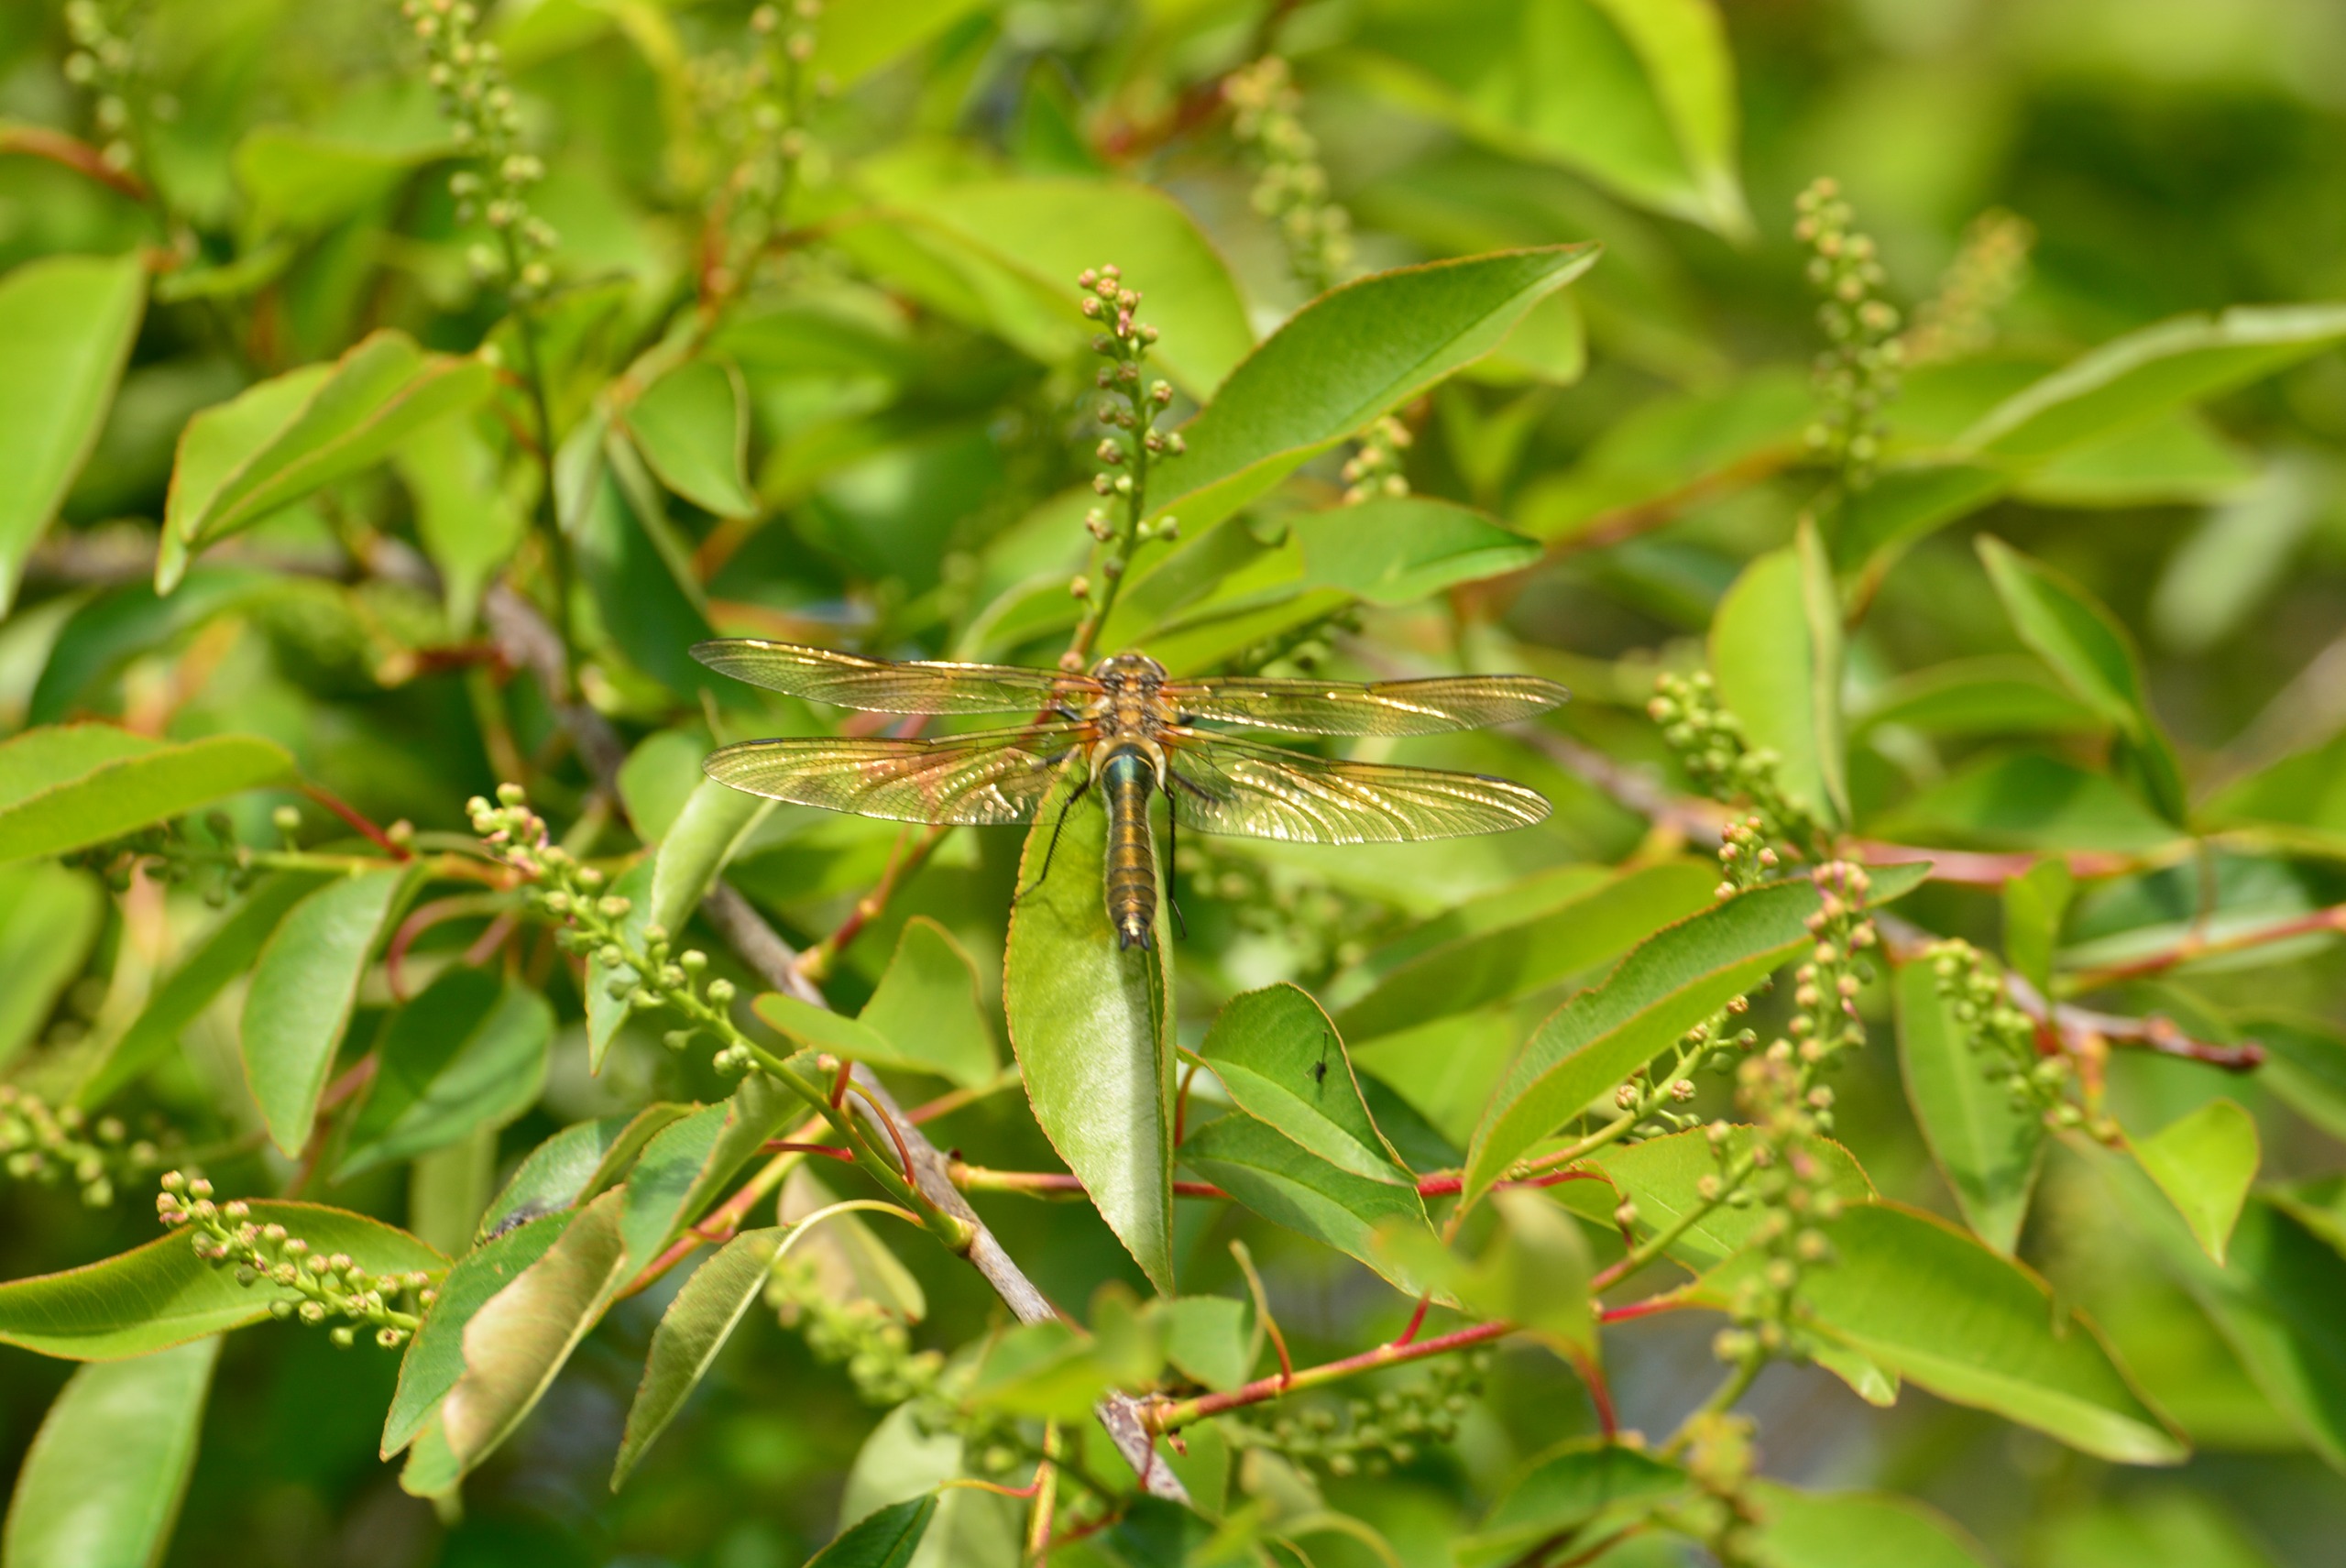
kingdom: Animalia
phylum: Arthropoda
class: Insecta
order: Odonata
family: Corduliidae
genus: Cordulia
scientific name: Cordulia aenea
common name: Grøn smaragdlibel
